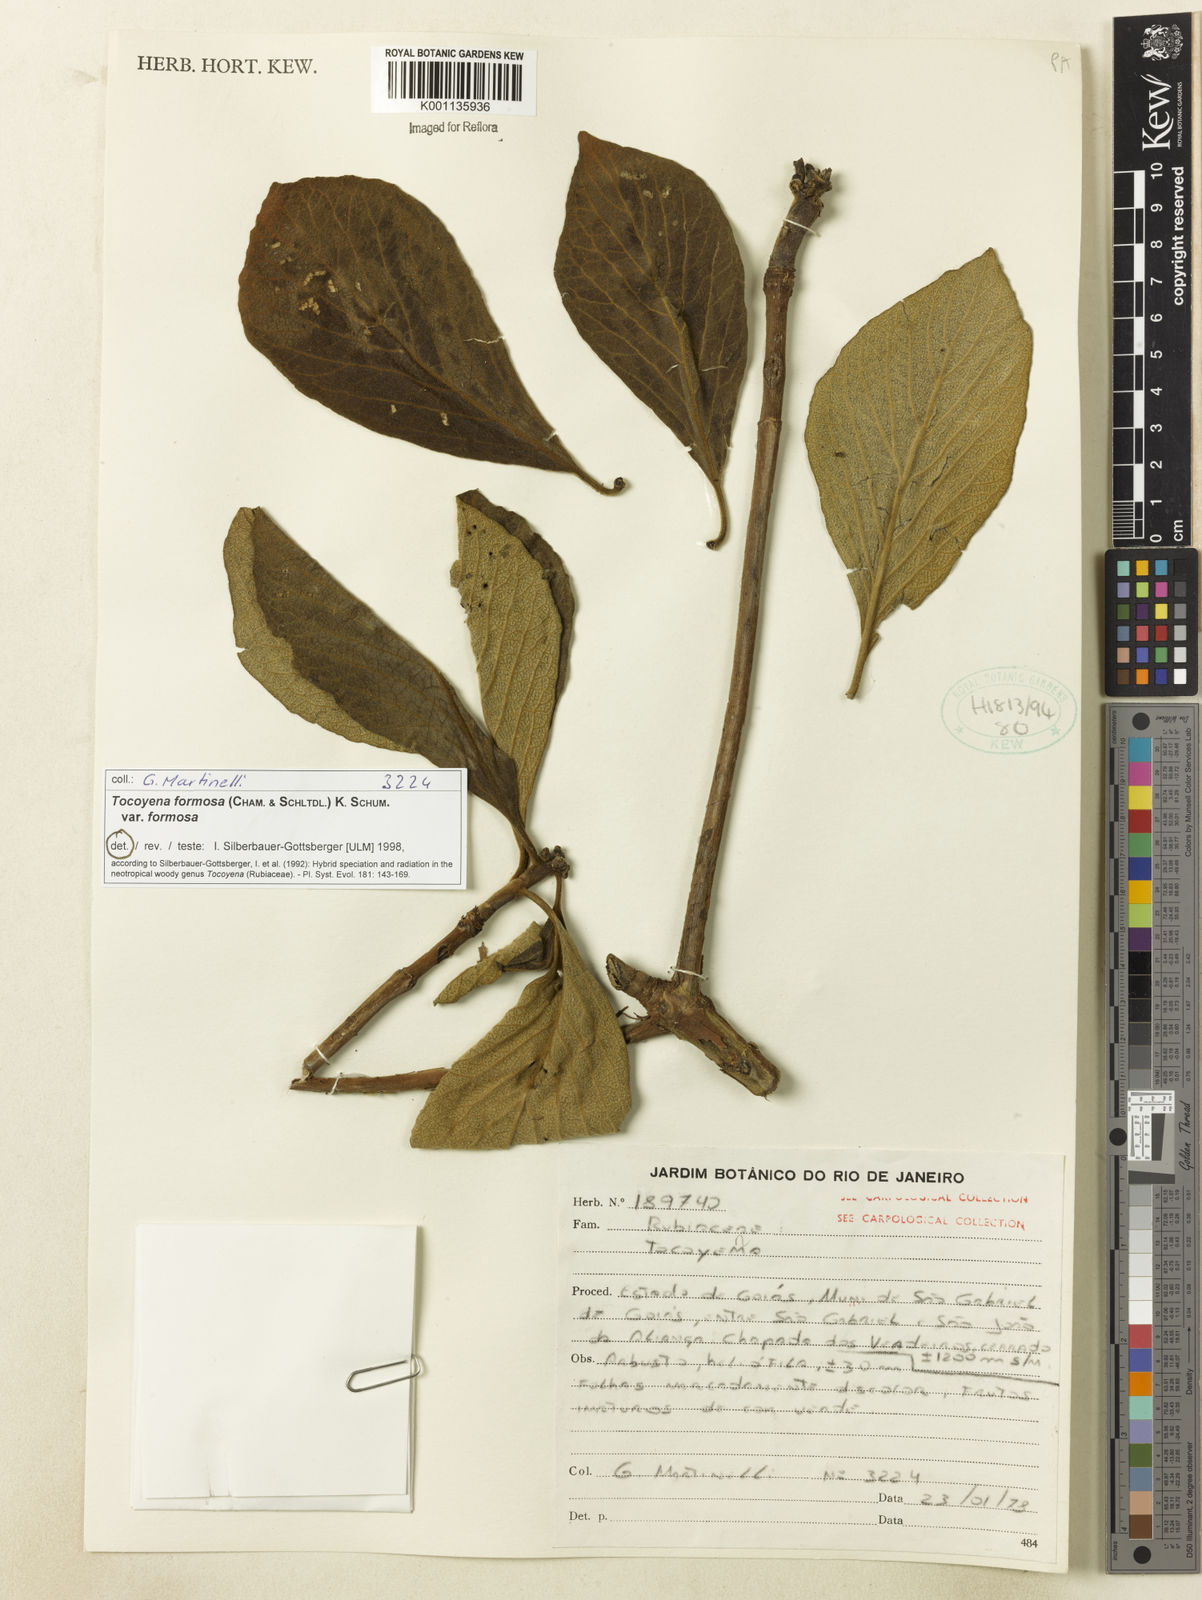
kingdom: Plantae
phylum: Tracheophyta
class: Magnoliopsida
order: Gentianales
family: Rubiaceae
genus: Tocoyena
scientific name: Tocoyena formosa
